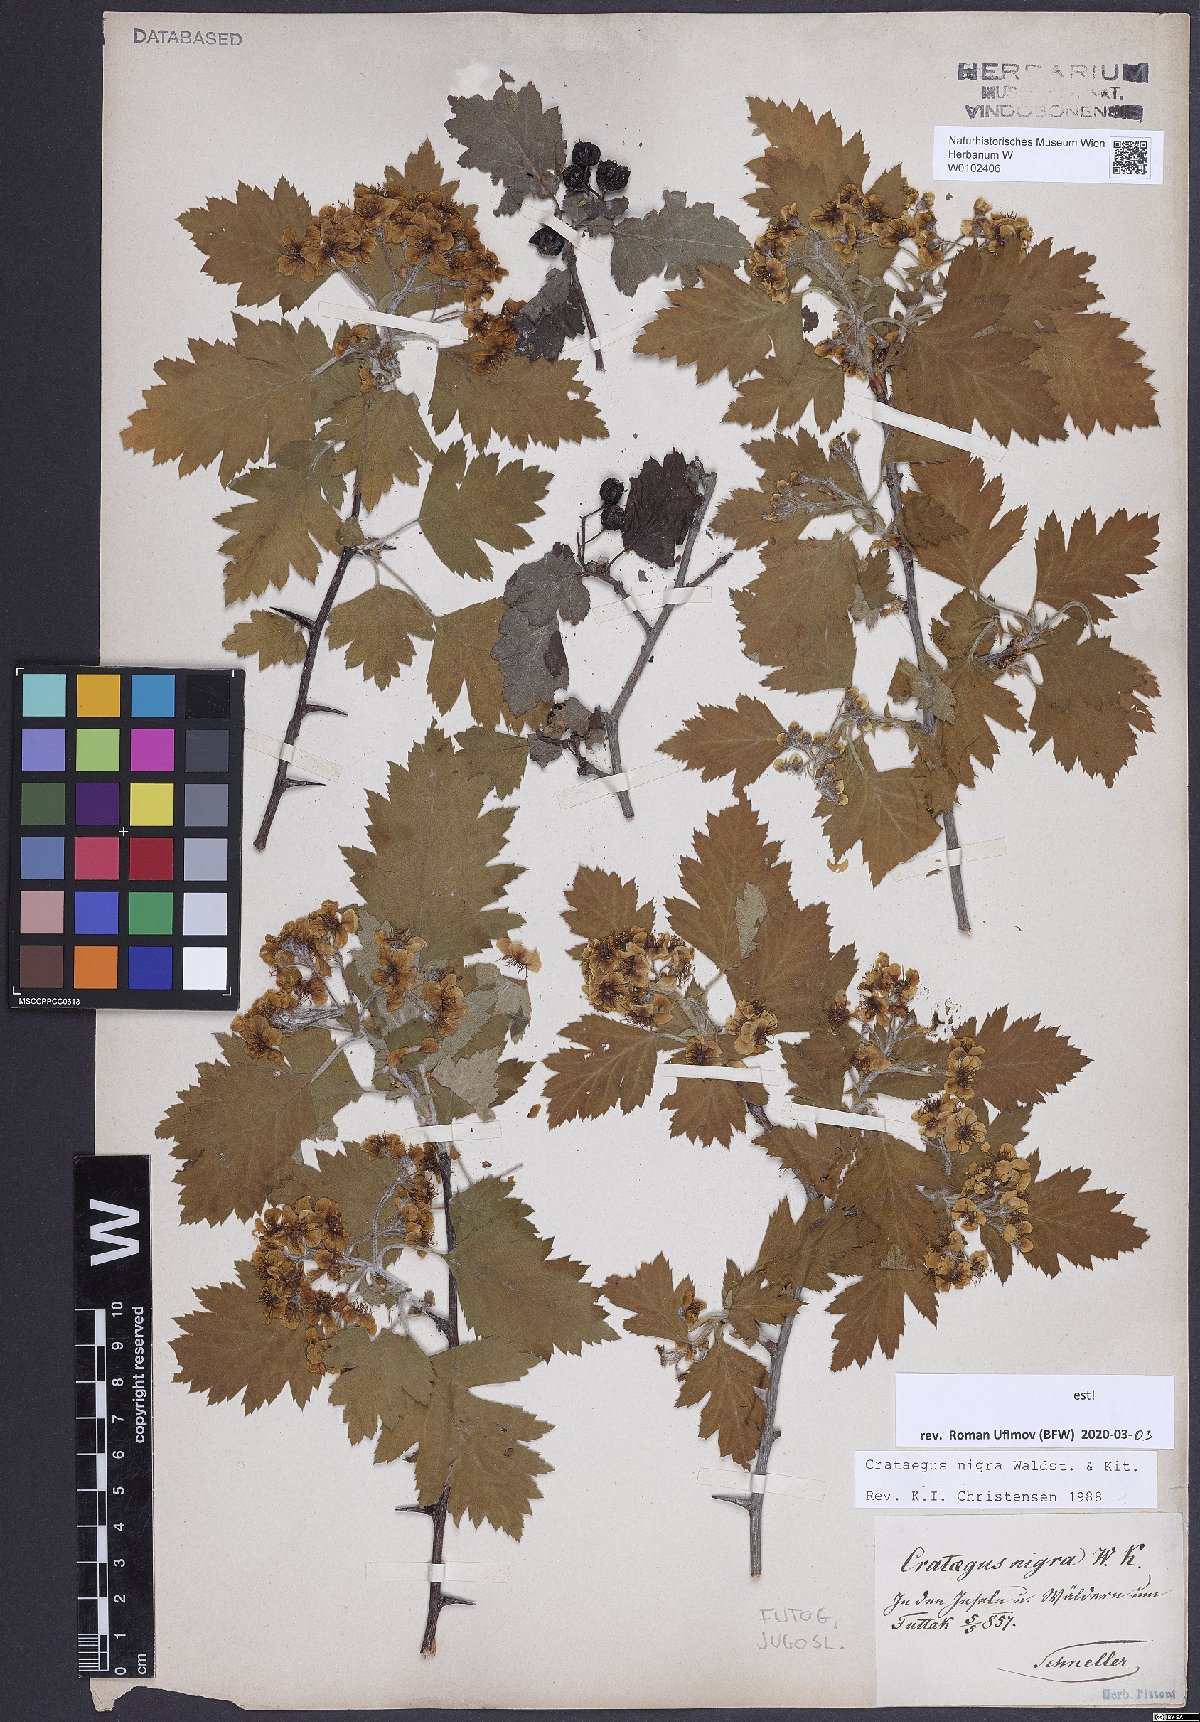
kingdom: Plantae
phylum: Tracheophyta
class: Magnoliopsida
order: Rosales
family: Rosaceae
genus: Crataegus
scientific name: Crataegus nigra
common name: Hungarian thorn
